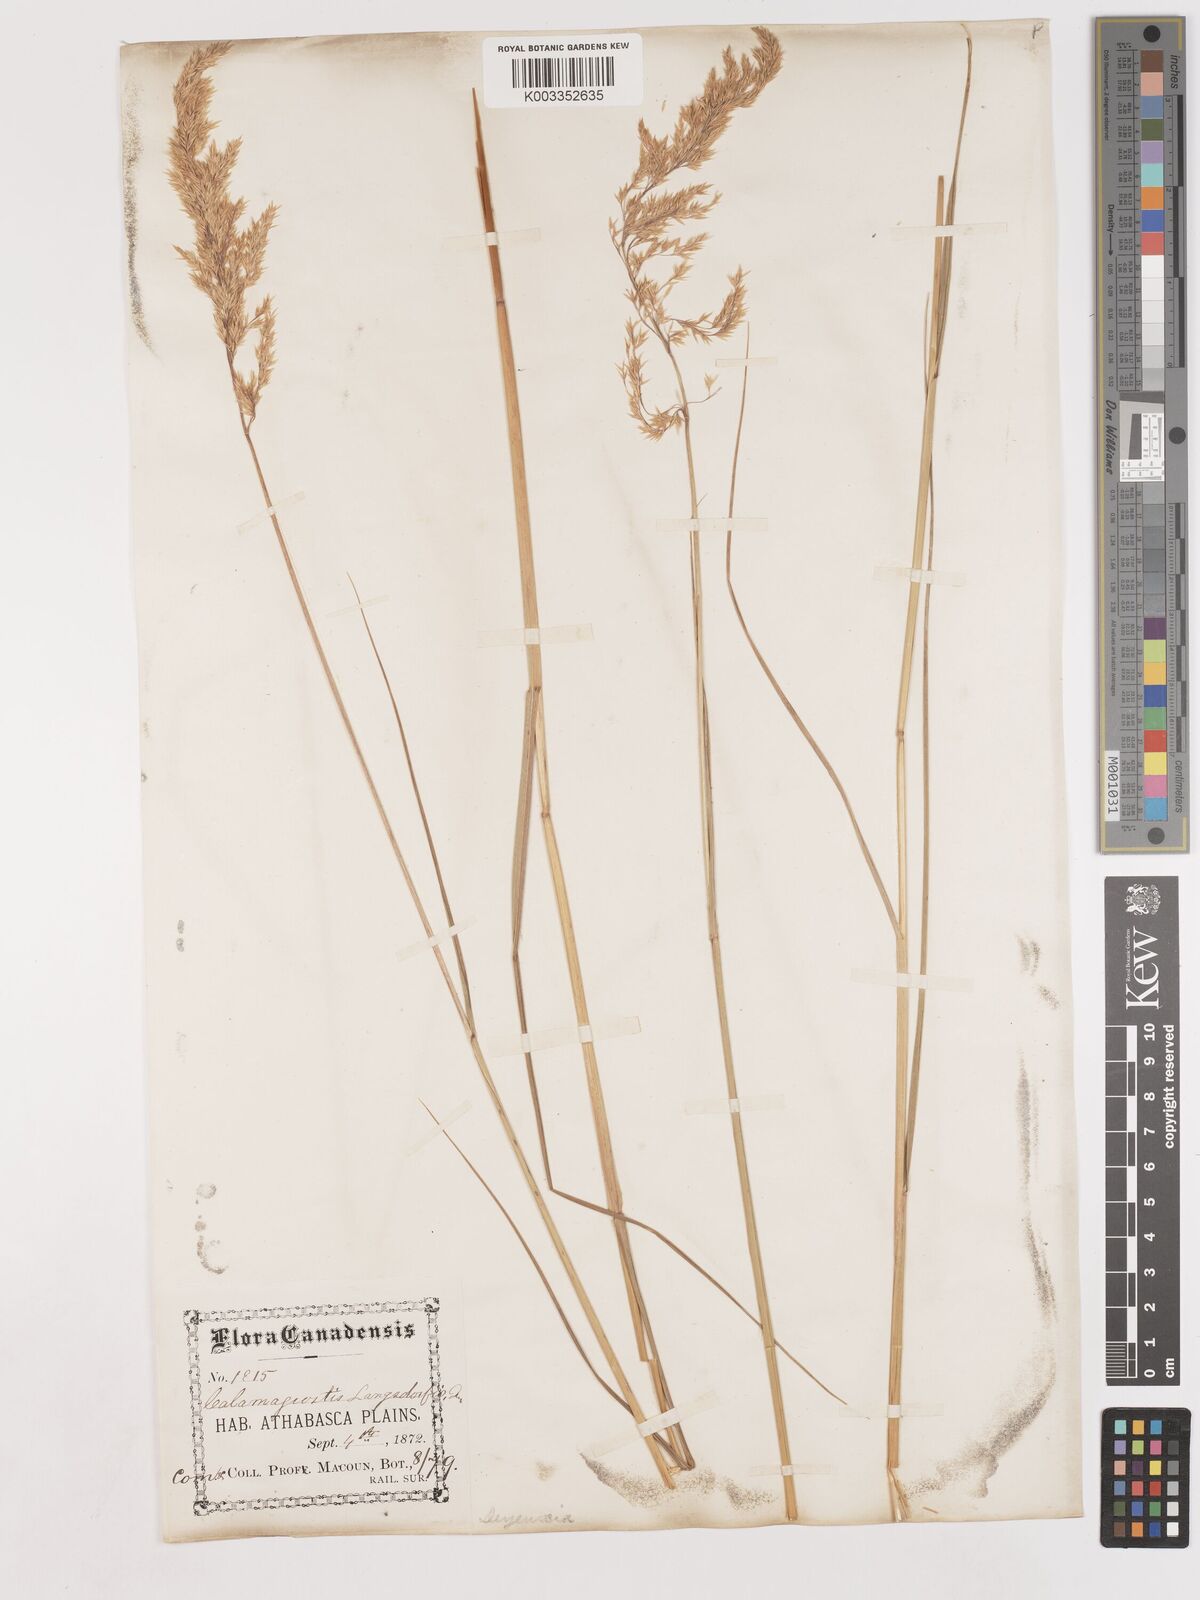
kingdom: Plantae
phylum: Tracheophyta
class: Liliopsida
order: Poales
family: Poaceae
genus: Calamagrostis
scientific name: Calamagrostis canadensis
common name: Canada bluejoint
